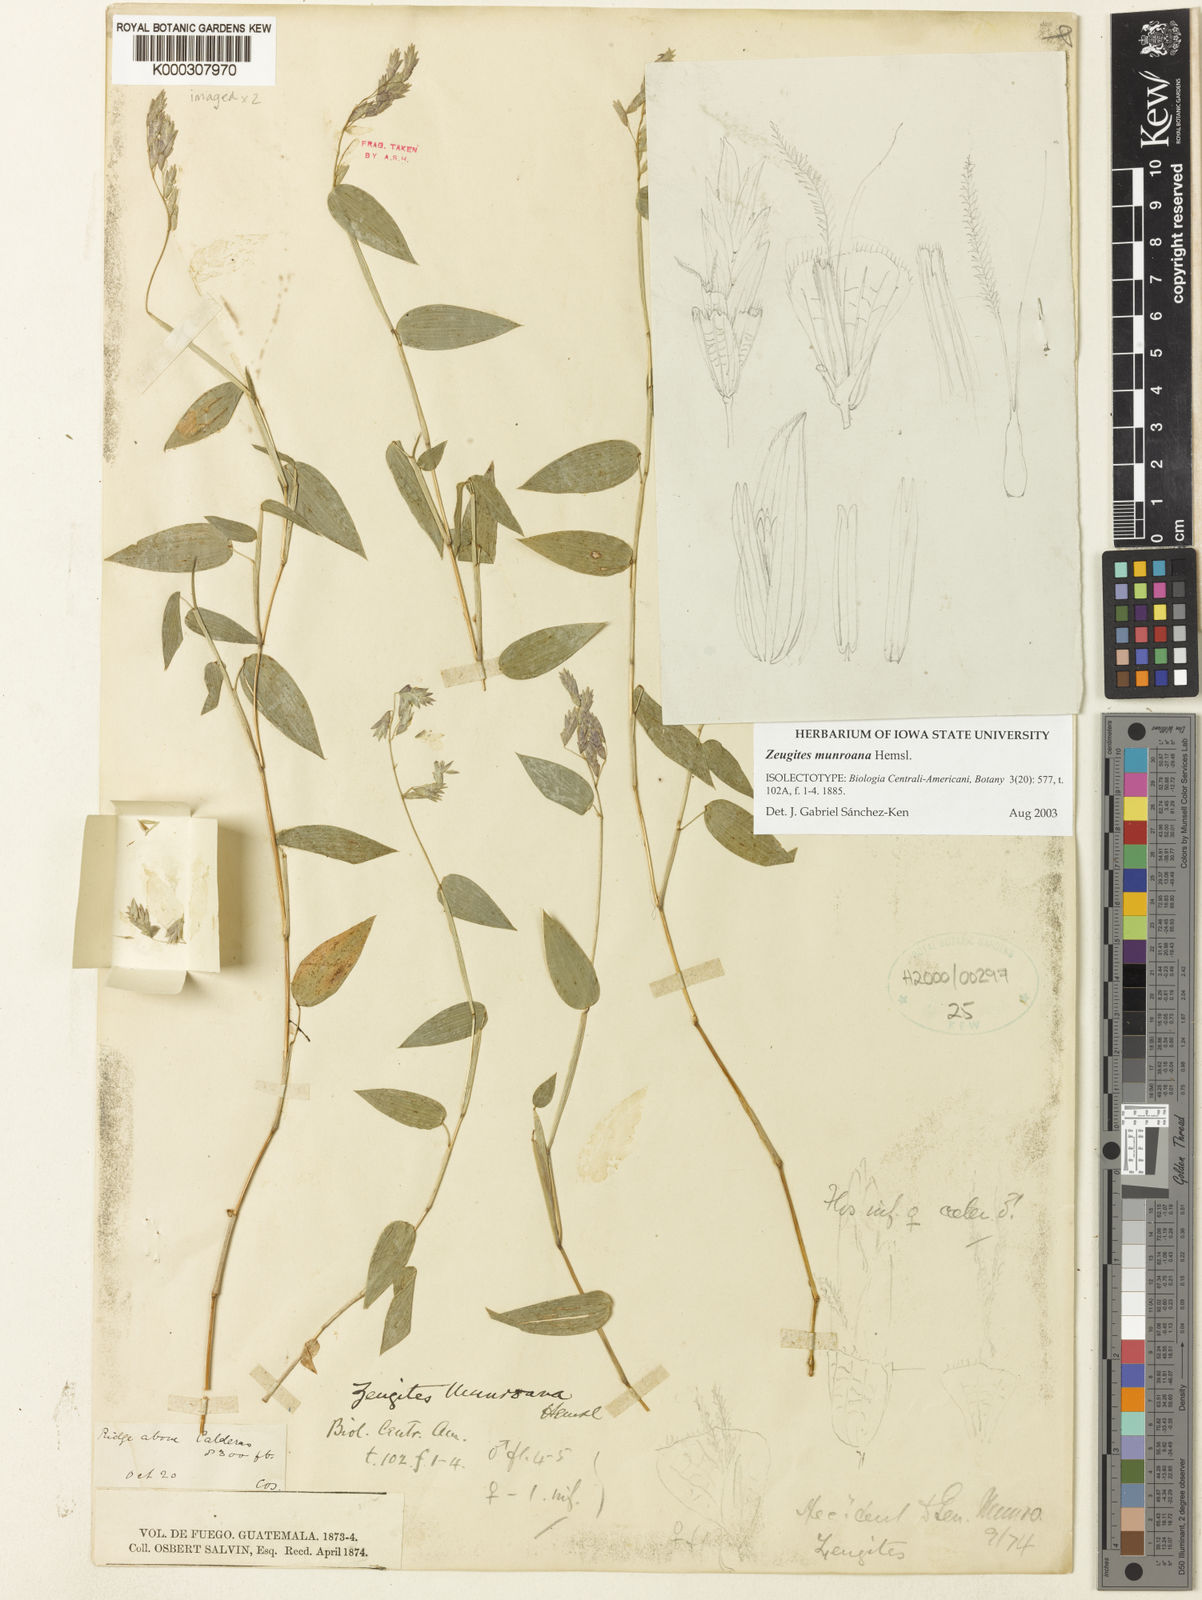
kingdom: Plantae
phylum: Tracheophyta
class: Liliopsida
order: Poales
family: Poaceae
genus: Zeugites
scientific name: Zeugites
